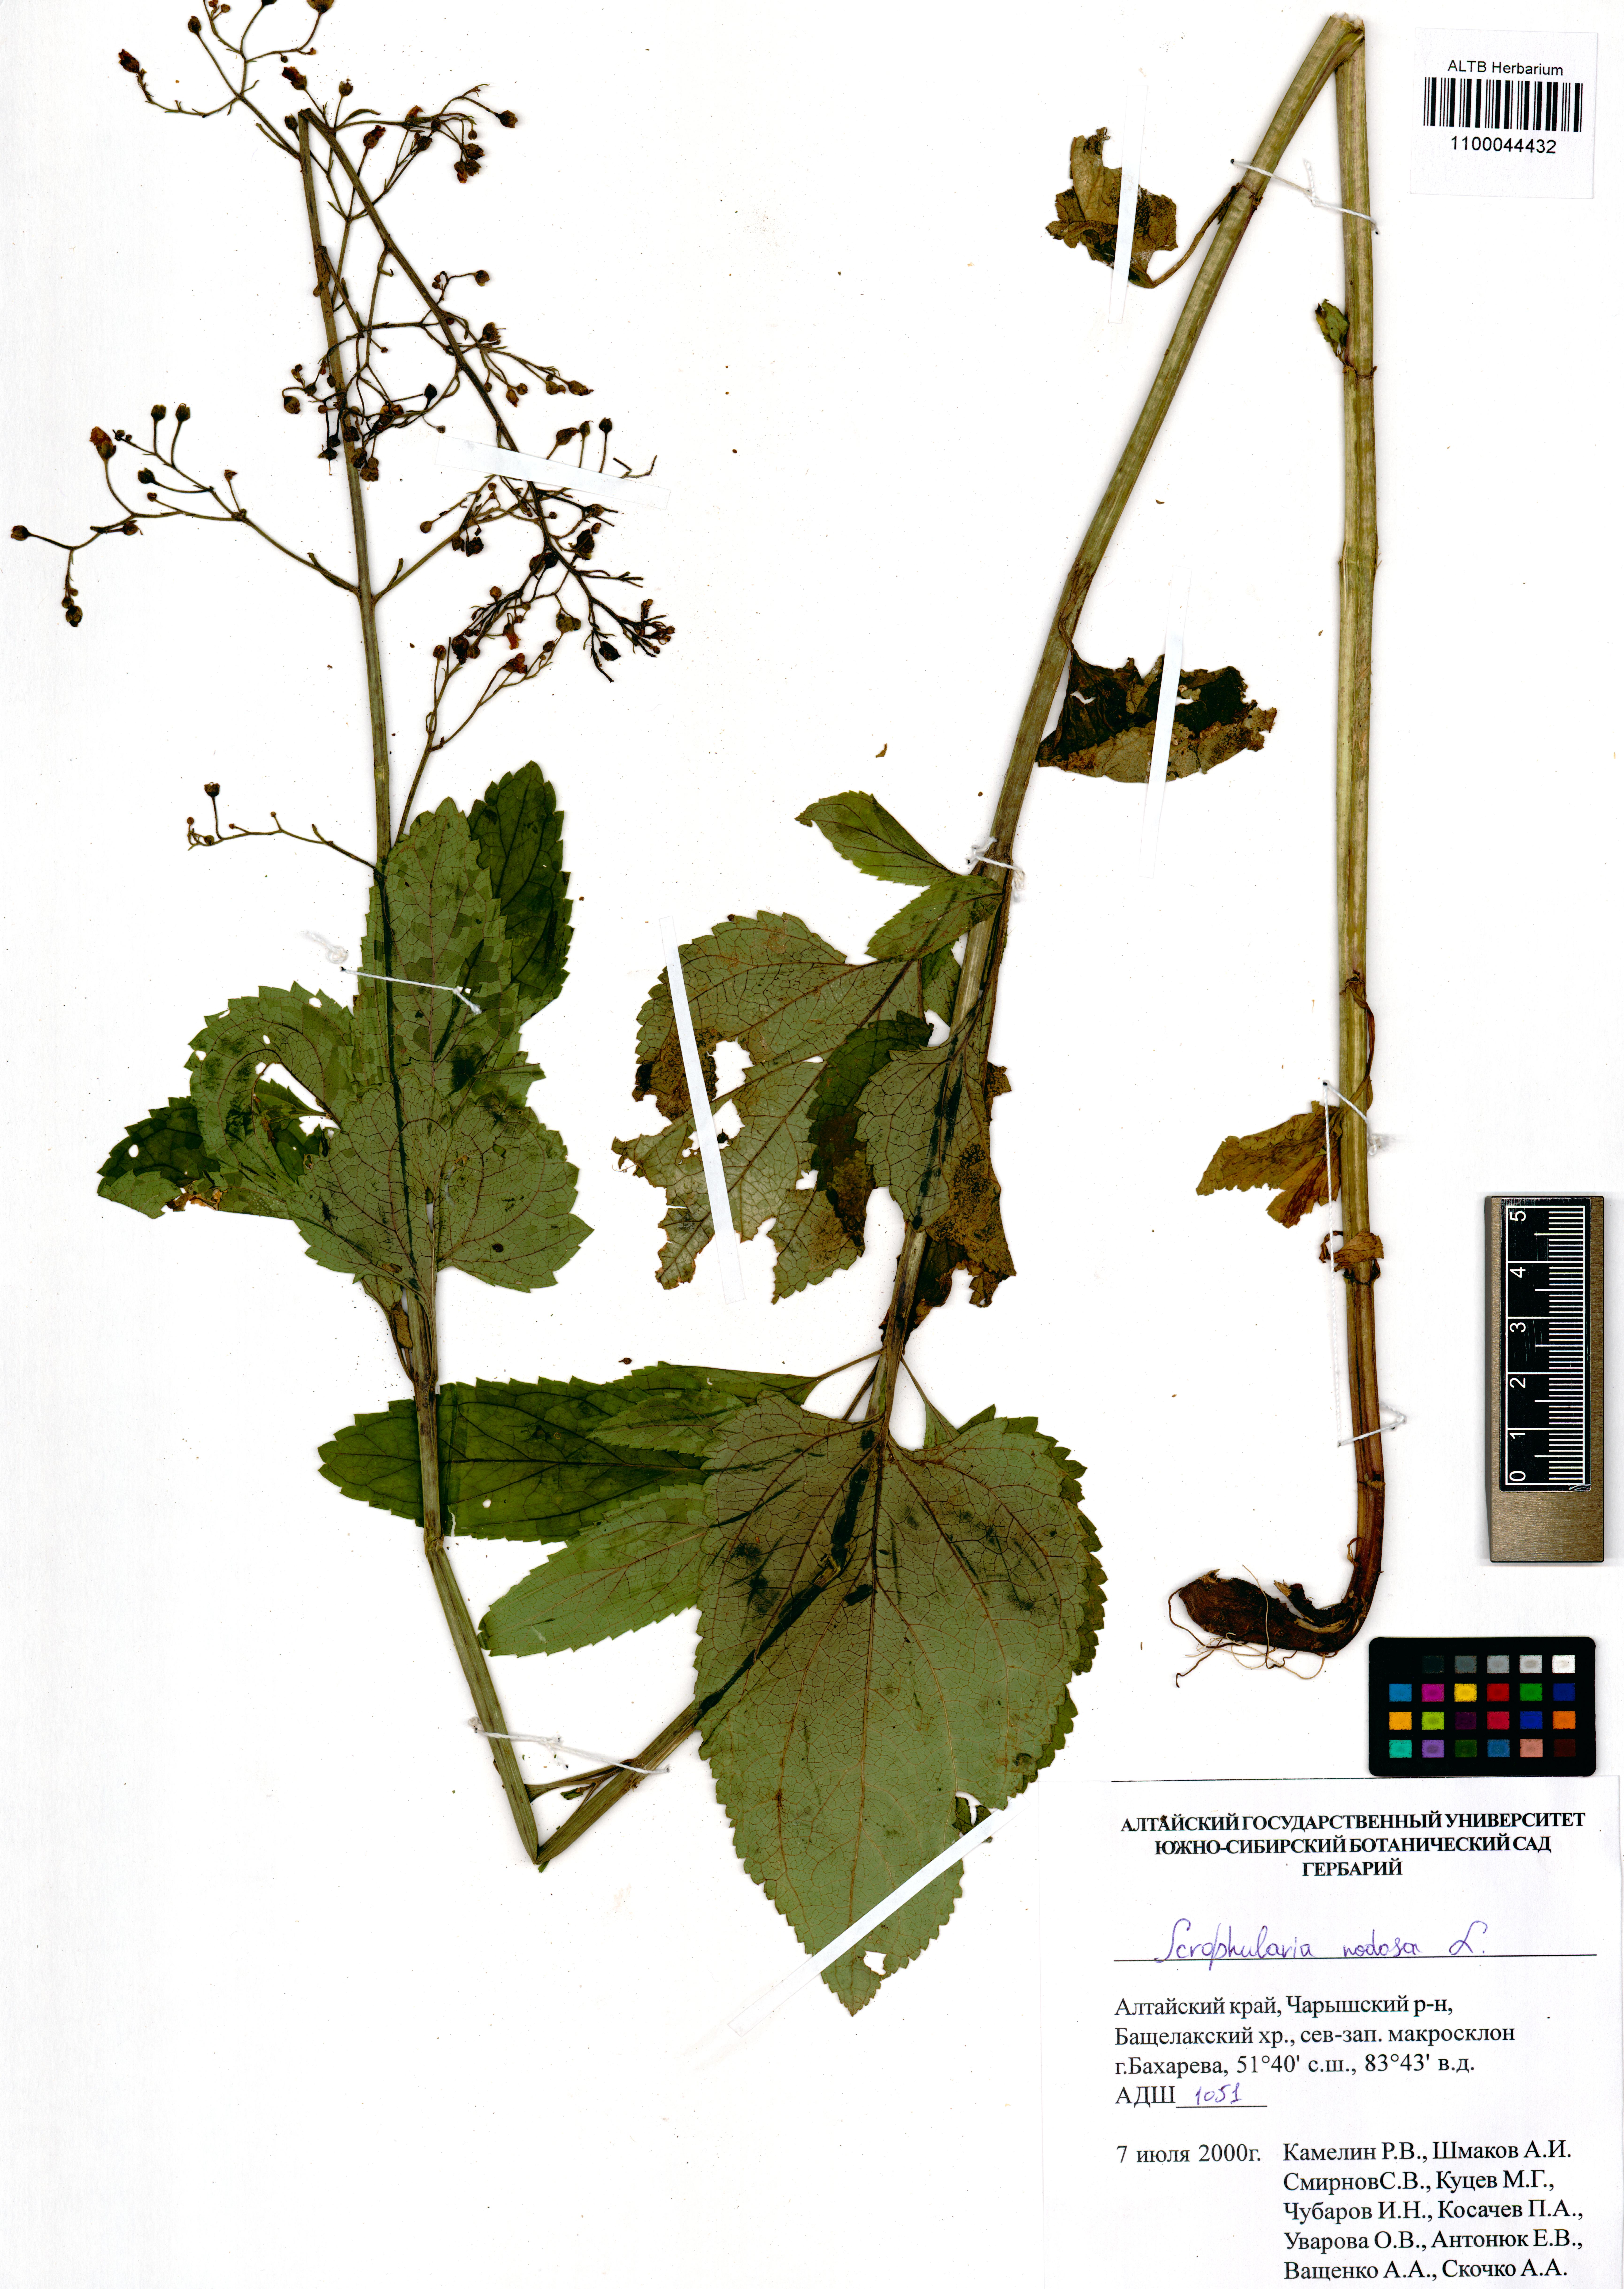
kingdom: Plantae
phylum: Tracheophyta
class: Magnoliopsida
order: Lamiales
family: Scrophulariaceae
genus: Scrophularia
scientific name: Scrophularia nodosa
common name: Common figwort
